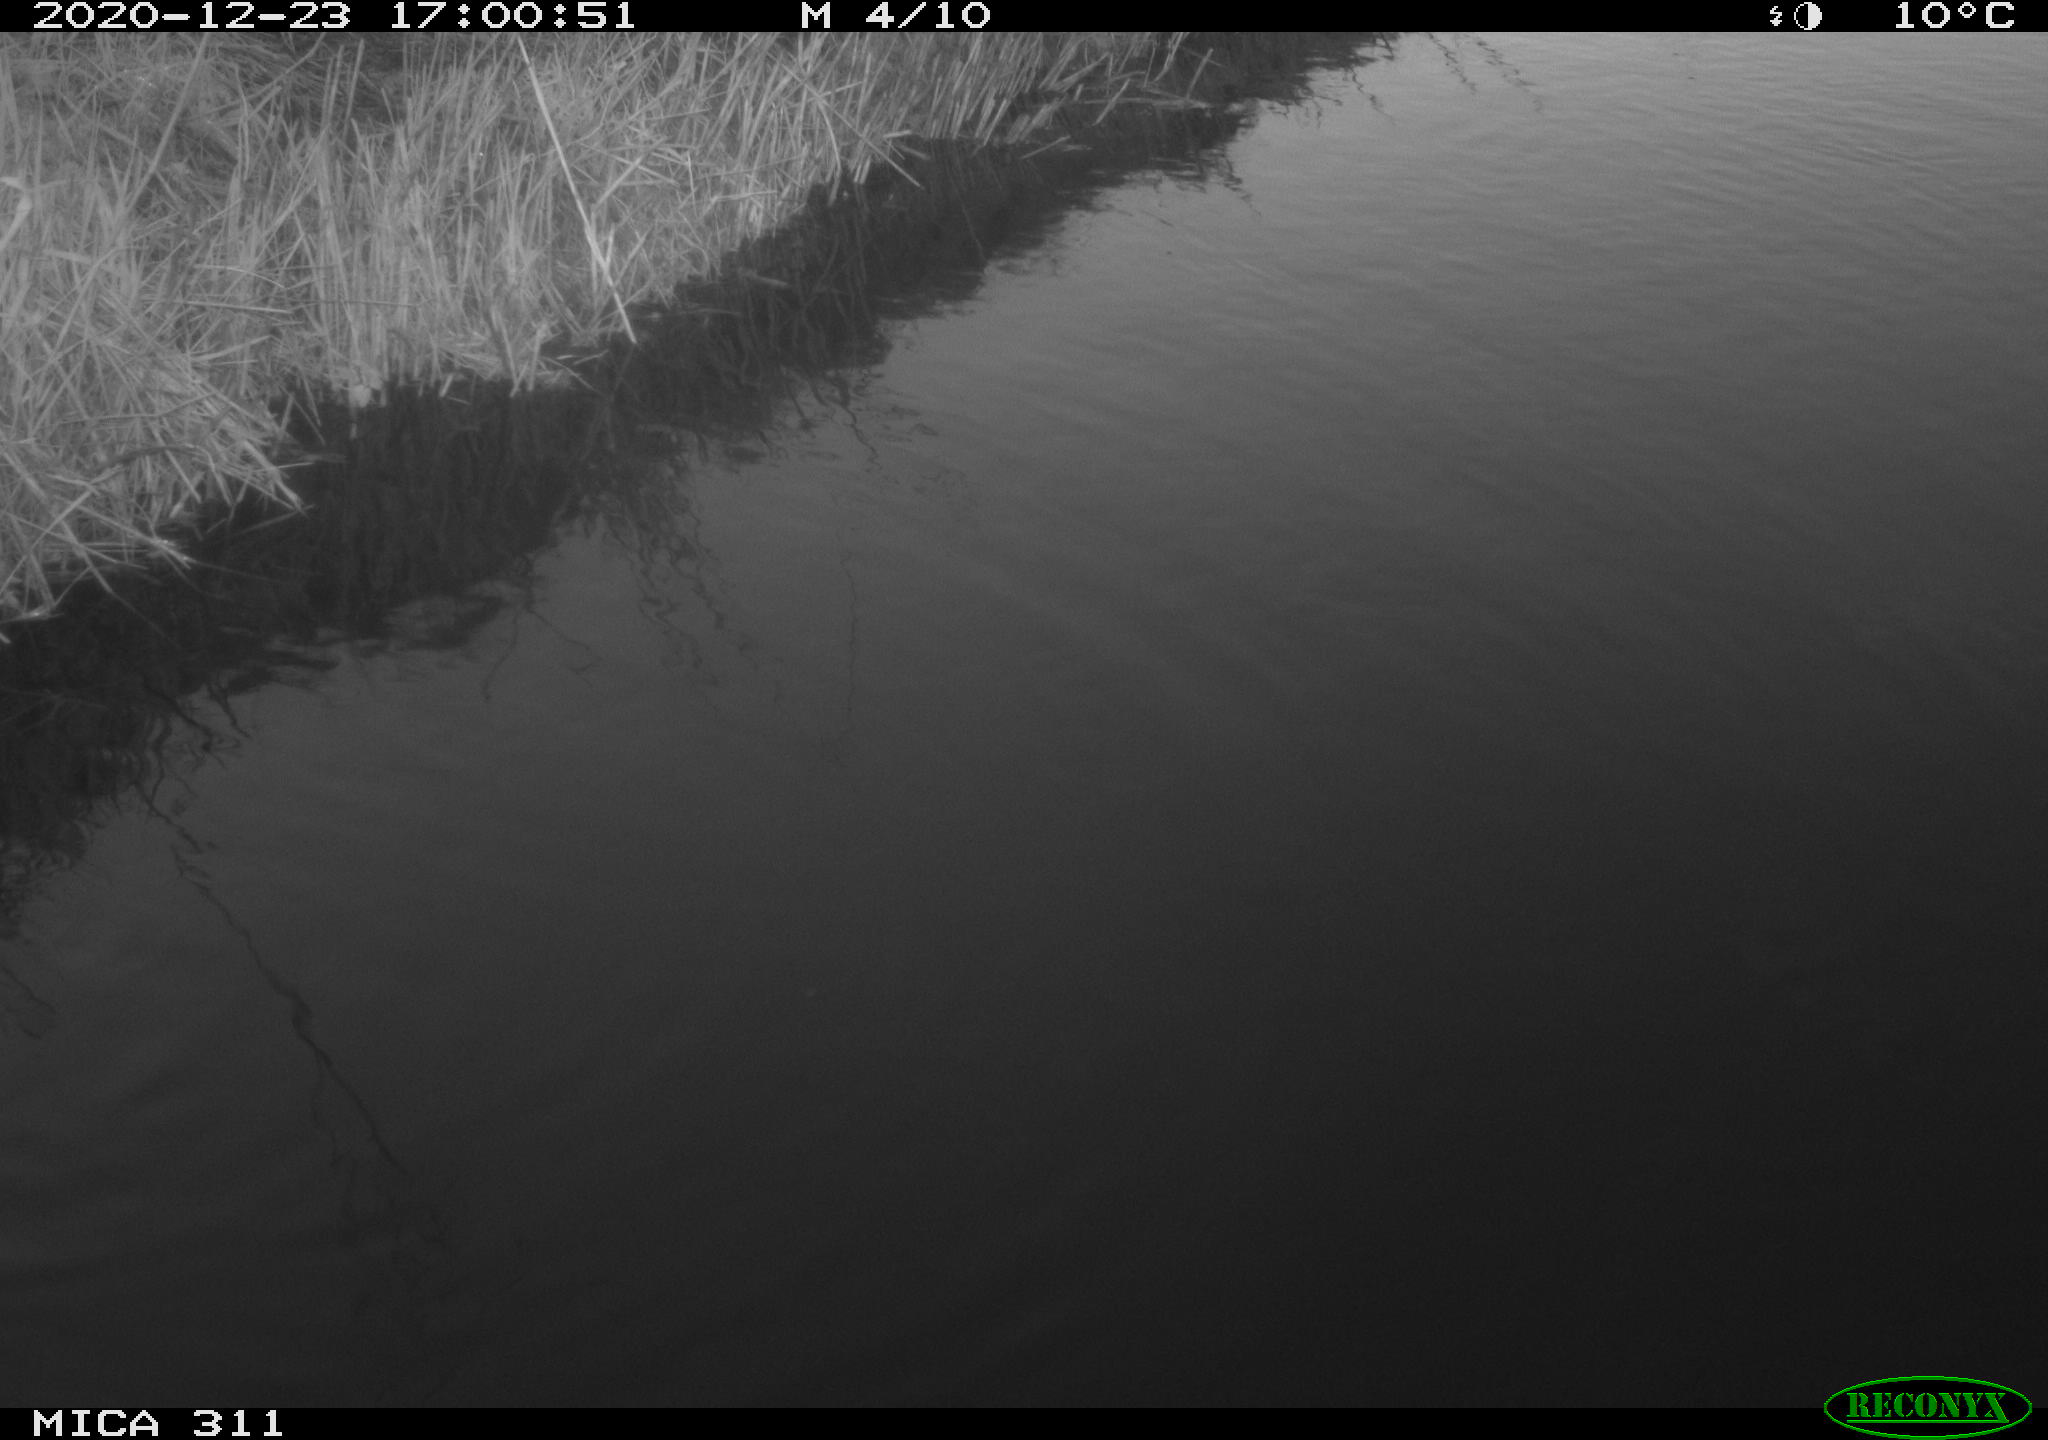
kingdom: Animalia
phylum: Chordata
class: Aves
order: Gruiformes
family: Rallidae
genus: Gallinula
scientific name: Gallinula chloropus
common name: Common moorhen
